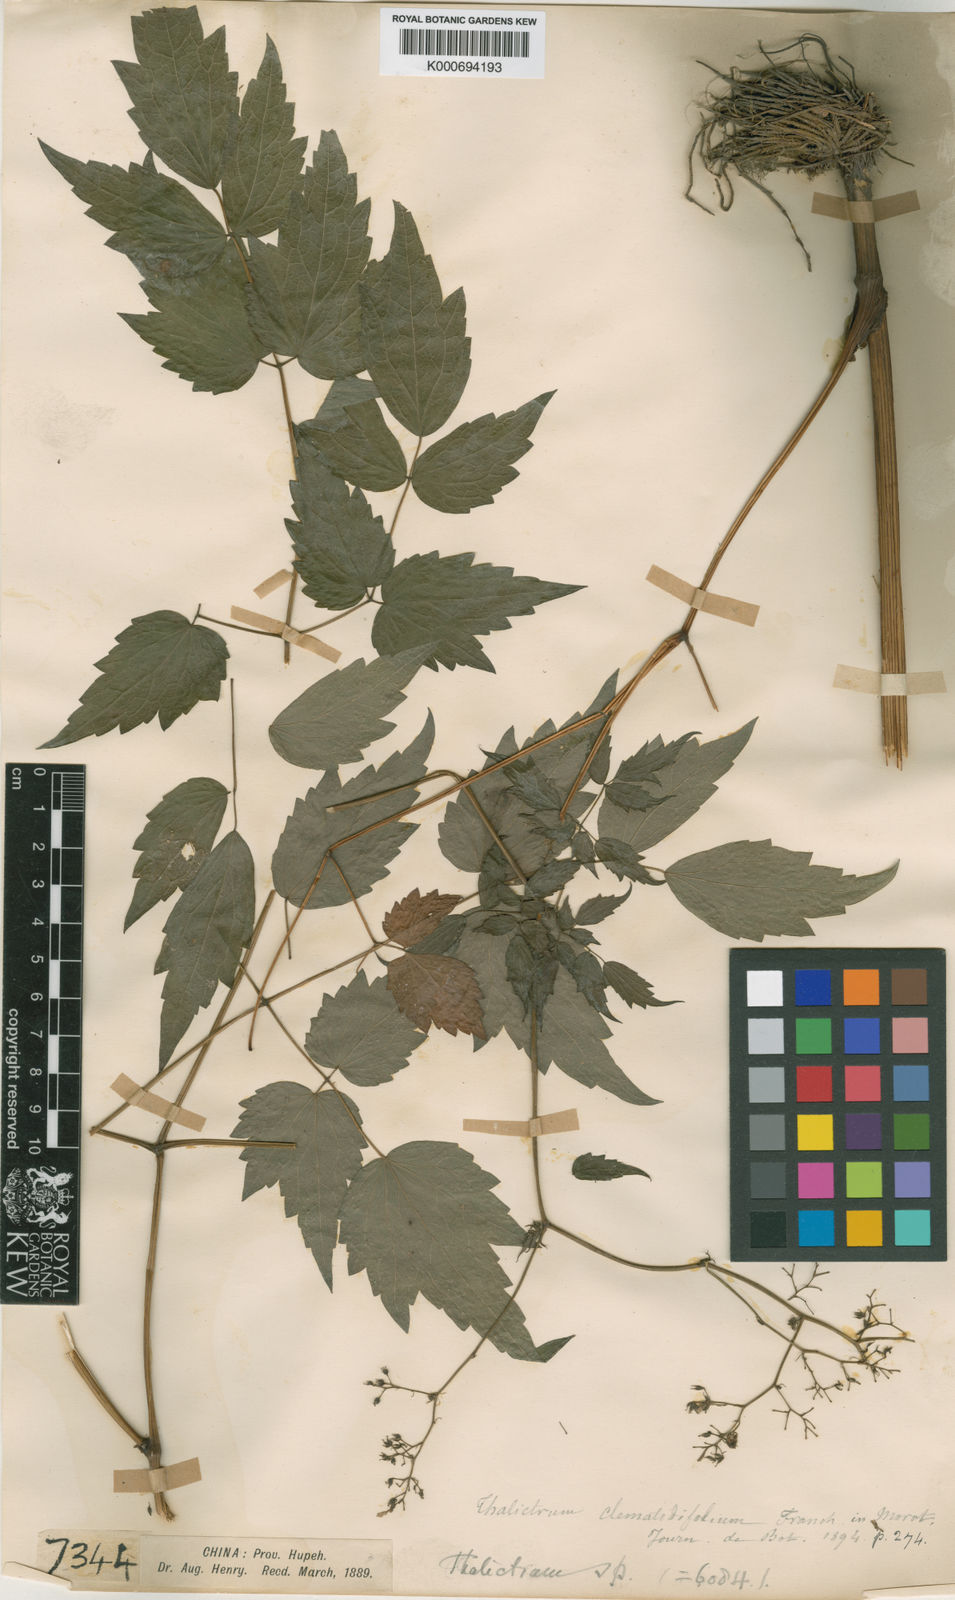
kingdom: Plantae
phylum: Tracheophyta
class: Magnoliopsida
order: Ranunculales
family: Ranunculaceae
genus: Thalictrum
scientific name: Thalictrum robustum
